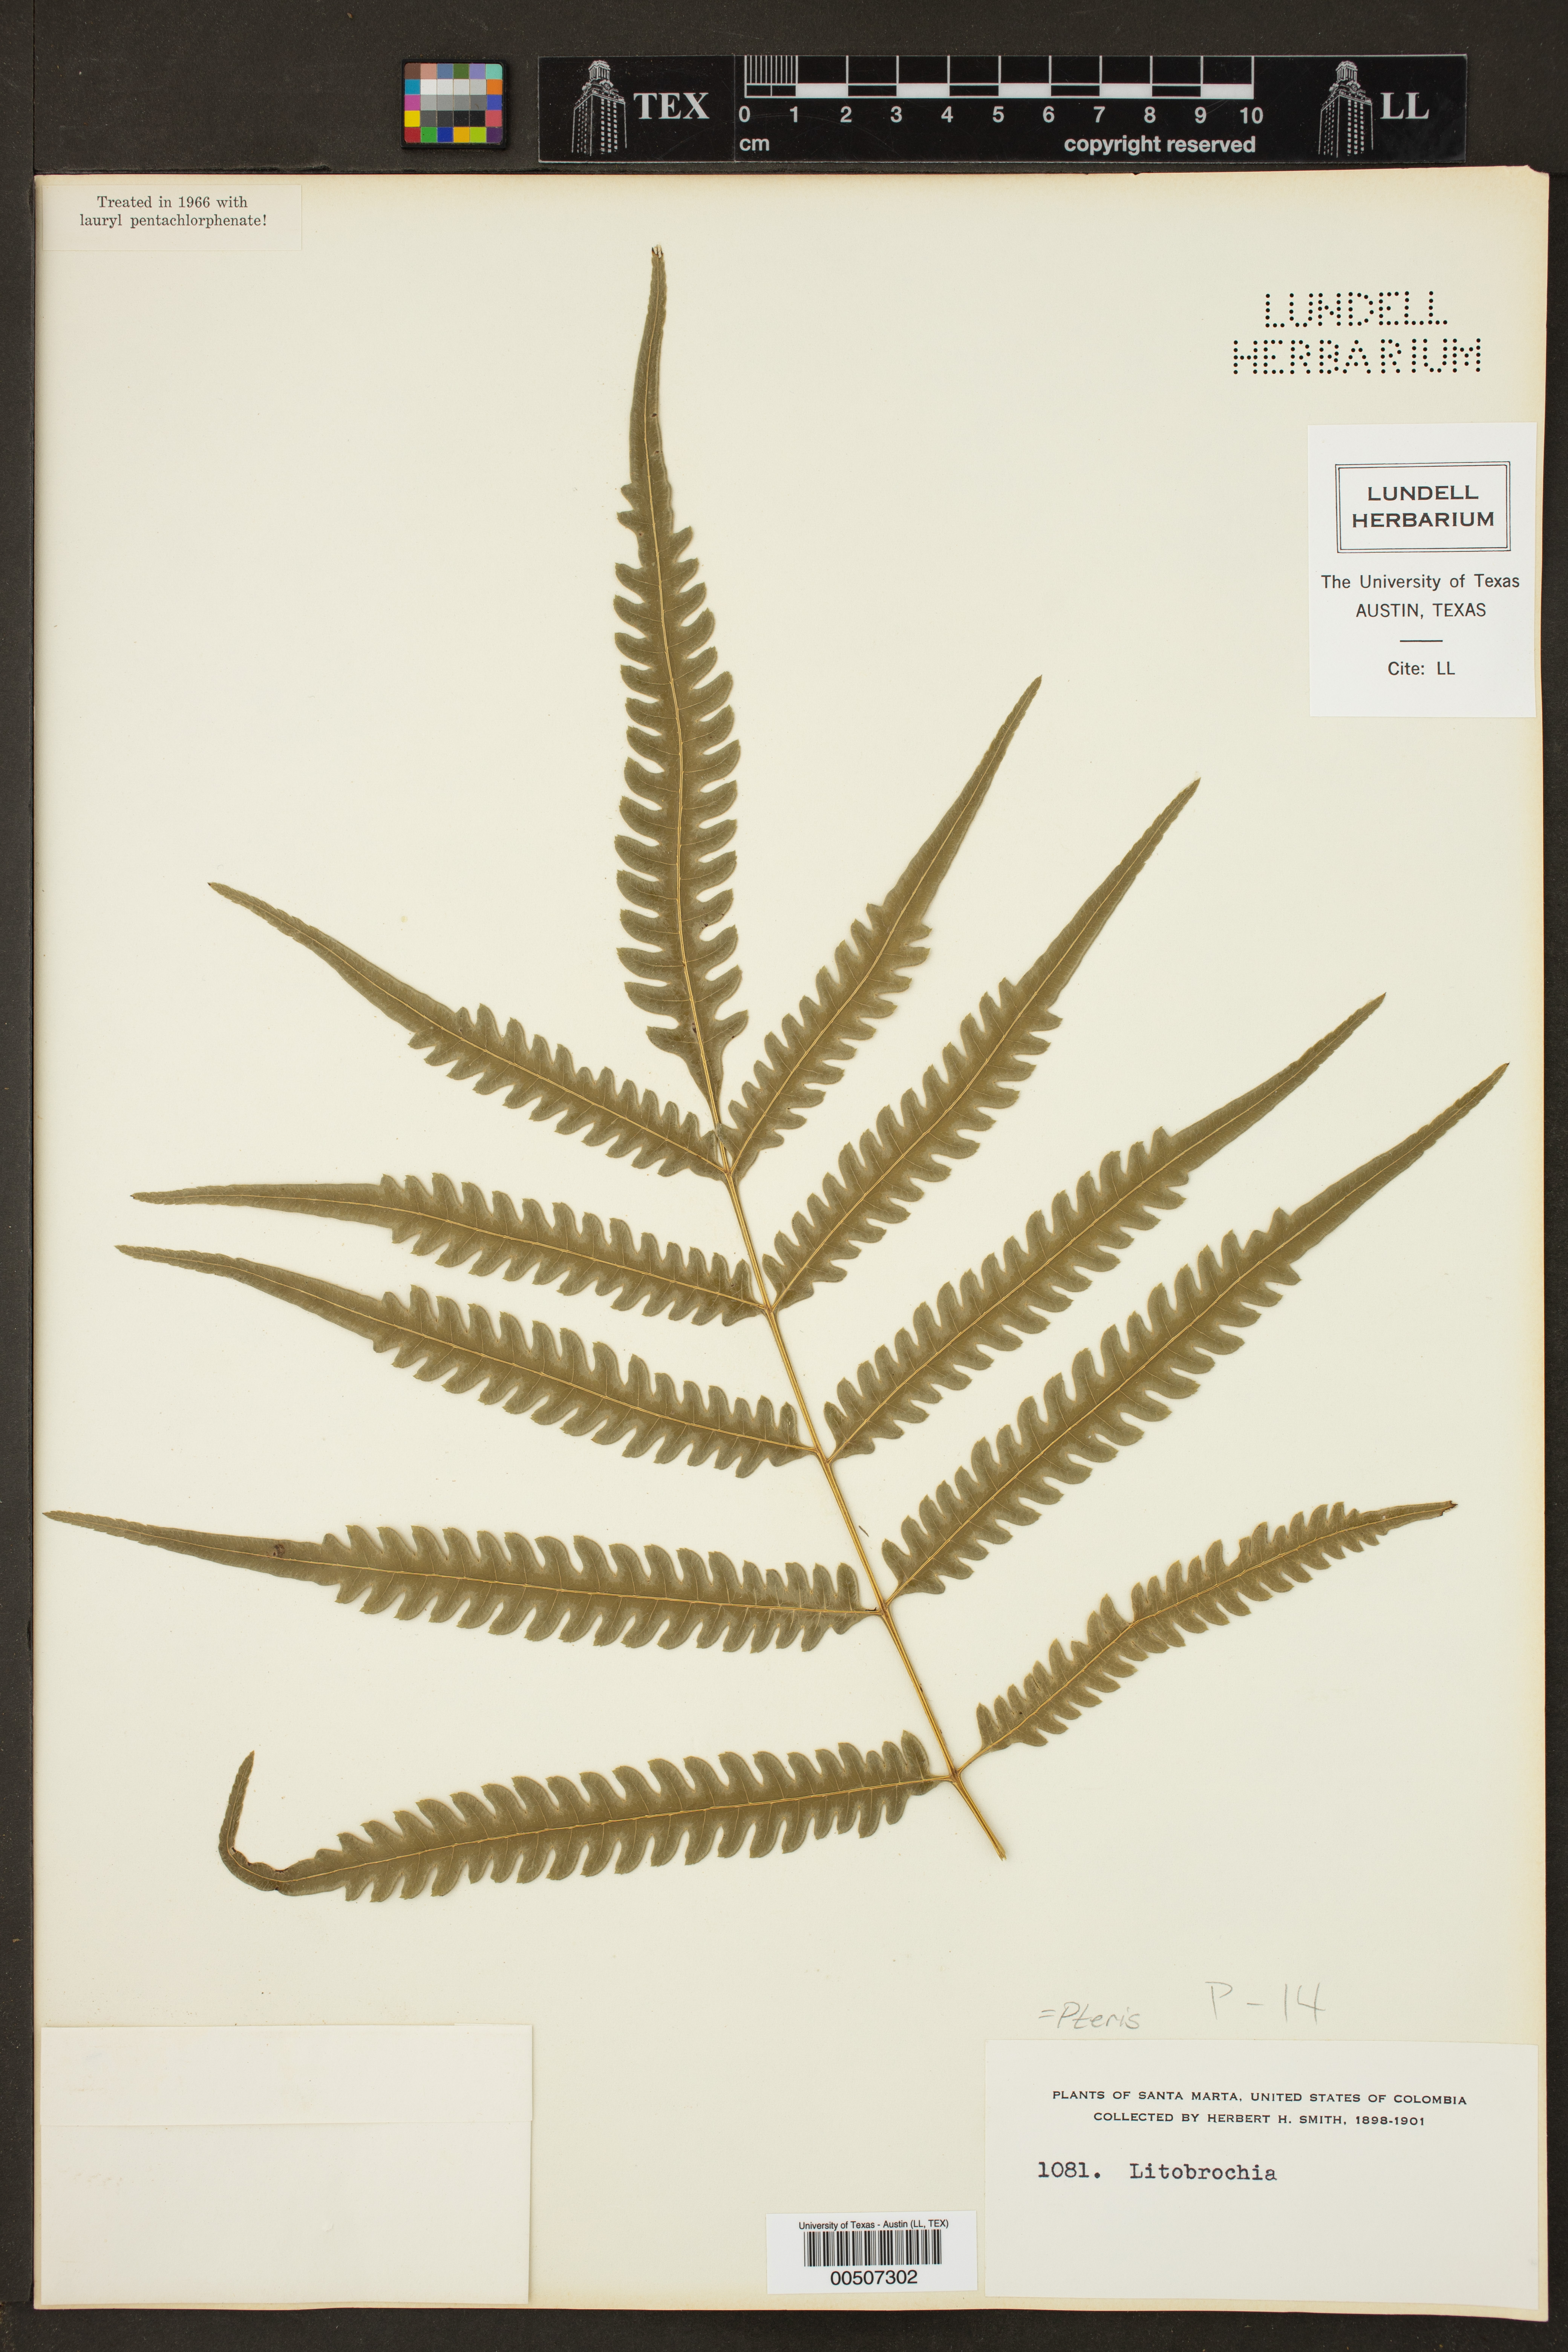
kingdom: Plantae
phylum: Tracheophyta
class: Polypodiopsida
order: Polypodiales
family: Pteridaceae
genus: Pteris
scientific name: Pteris
